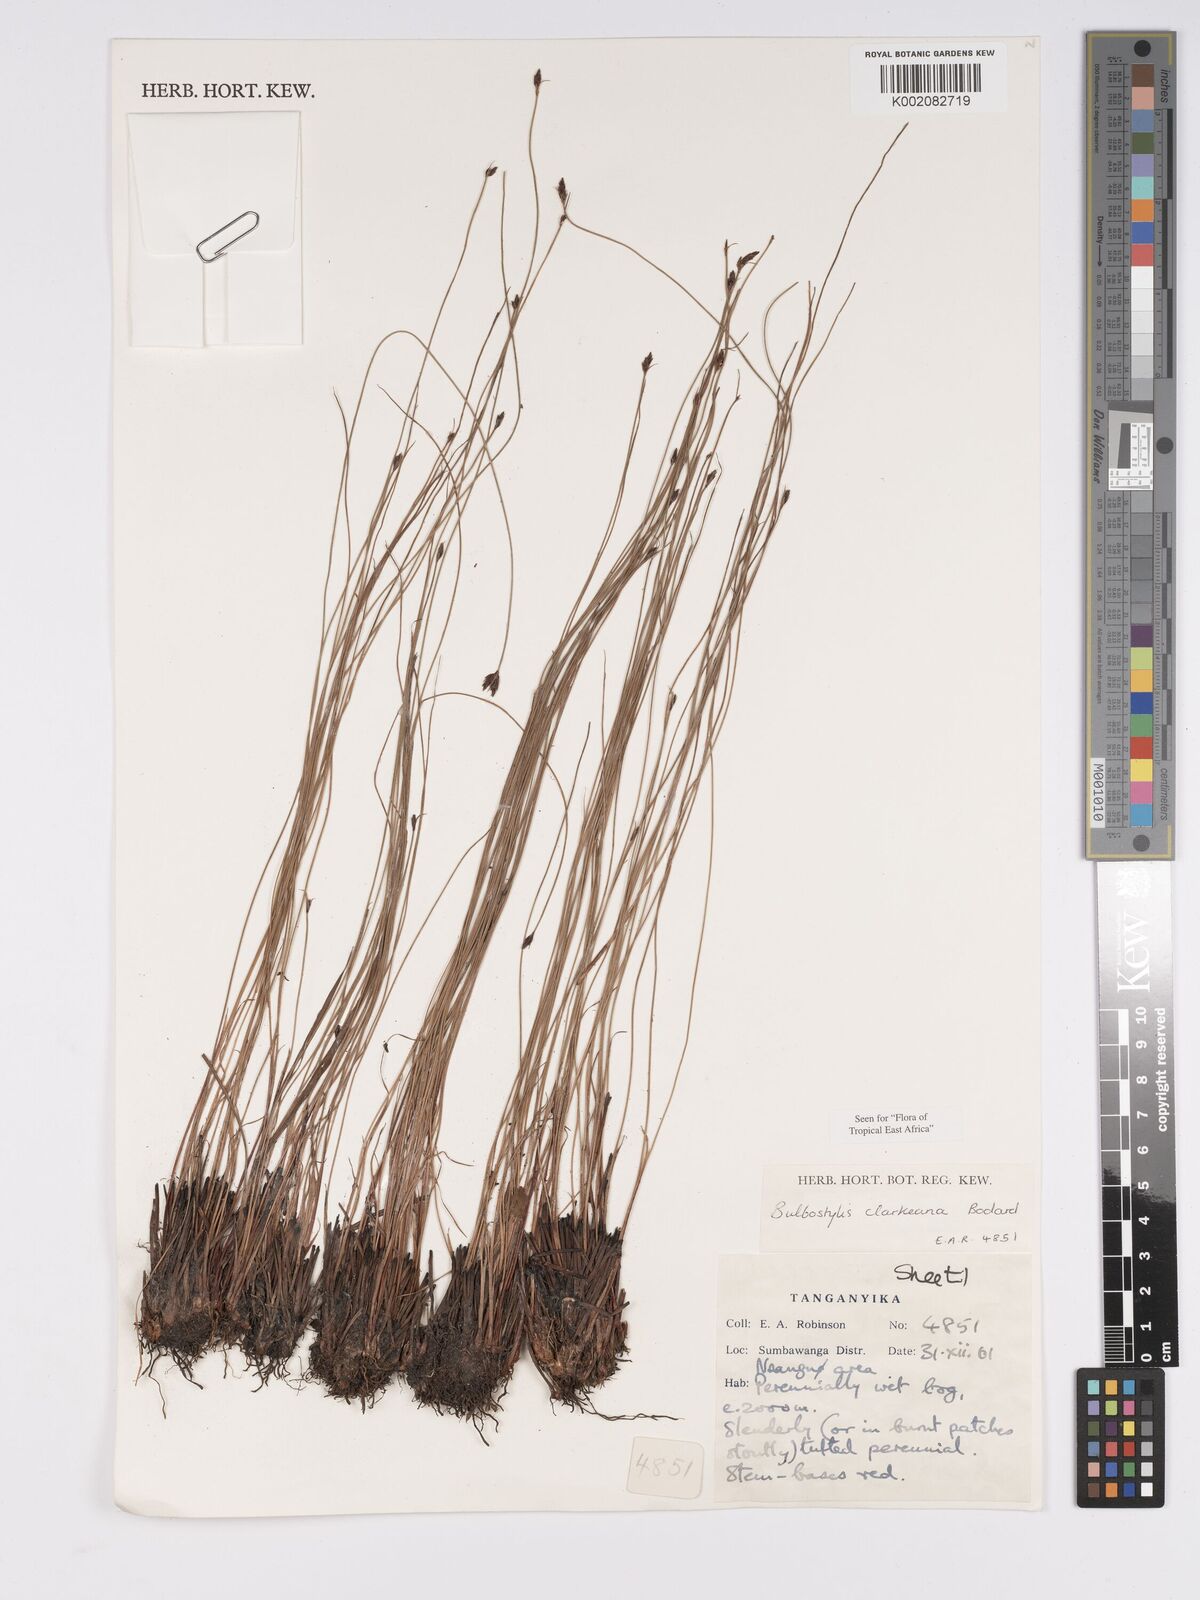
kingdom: Plantae
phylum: Tracheophyta
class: Liliopsida
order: Poales
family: Cyperaceae
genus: Bulbostylis
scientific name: Bulbostylis clarkeana
